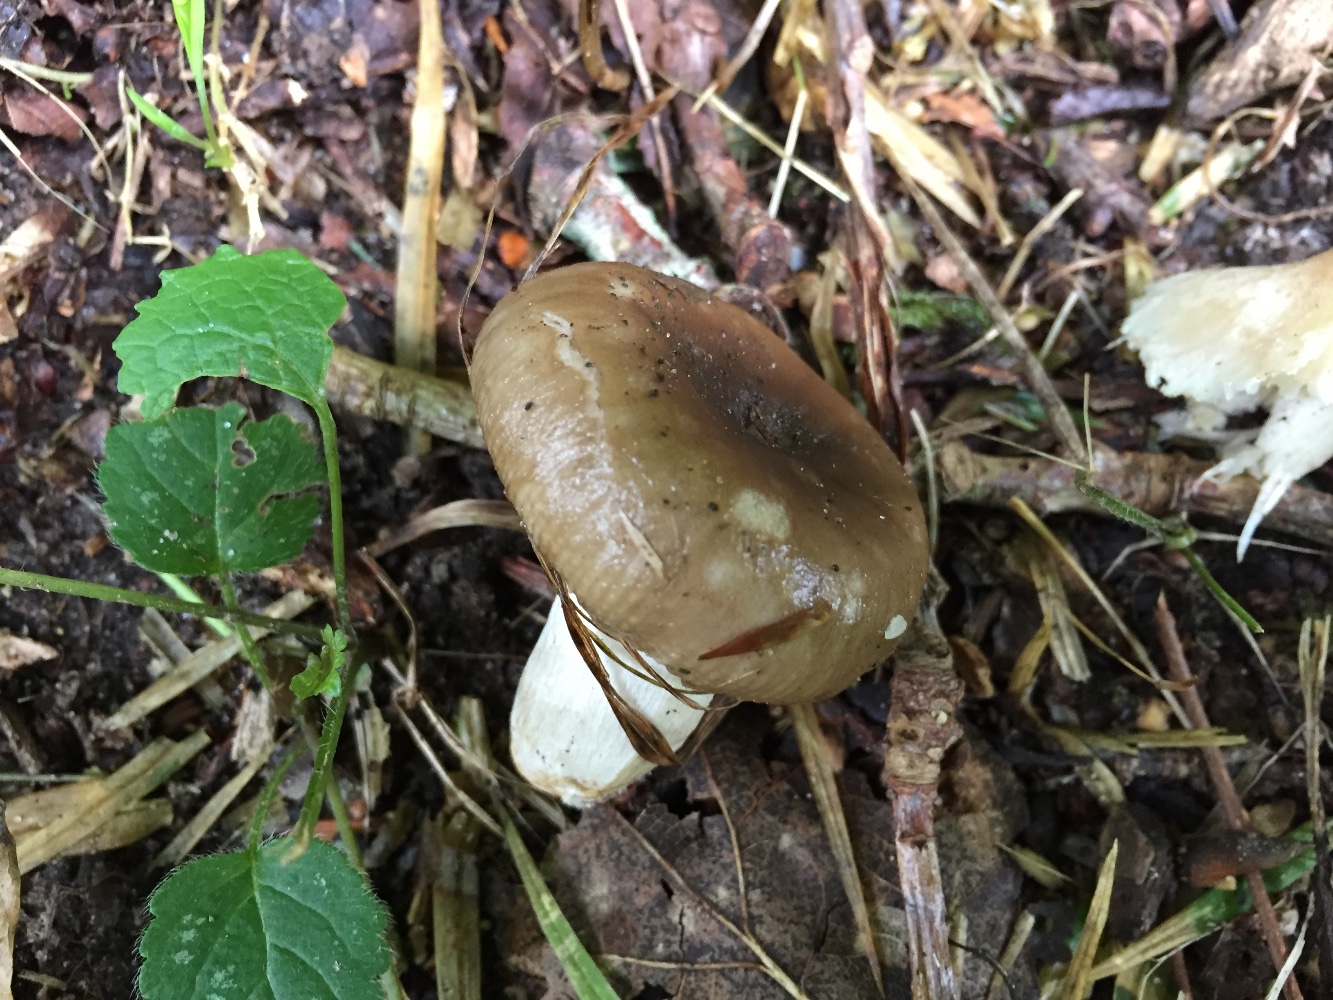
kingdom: Fungi
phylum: Basidiomycota
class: Agaricomycetes
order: Russulales
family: Russulaceae
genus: Russula
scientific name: Russula amoenolens
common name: skarp kam-skørhat
